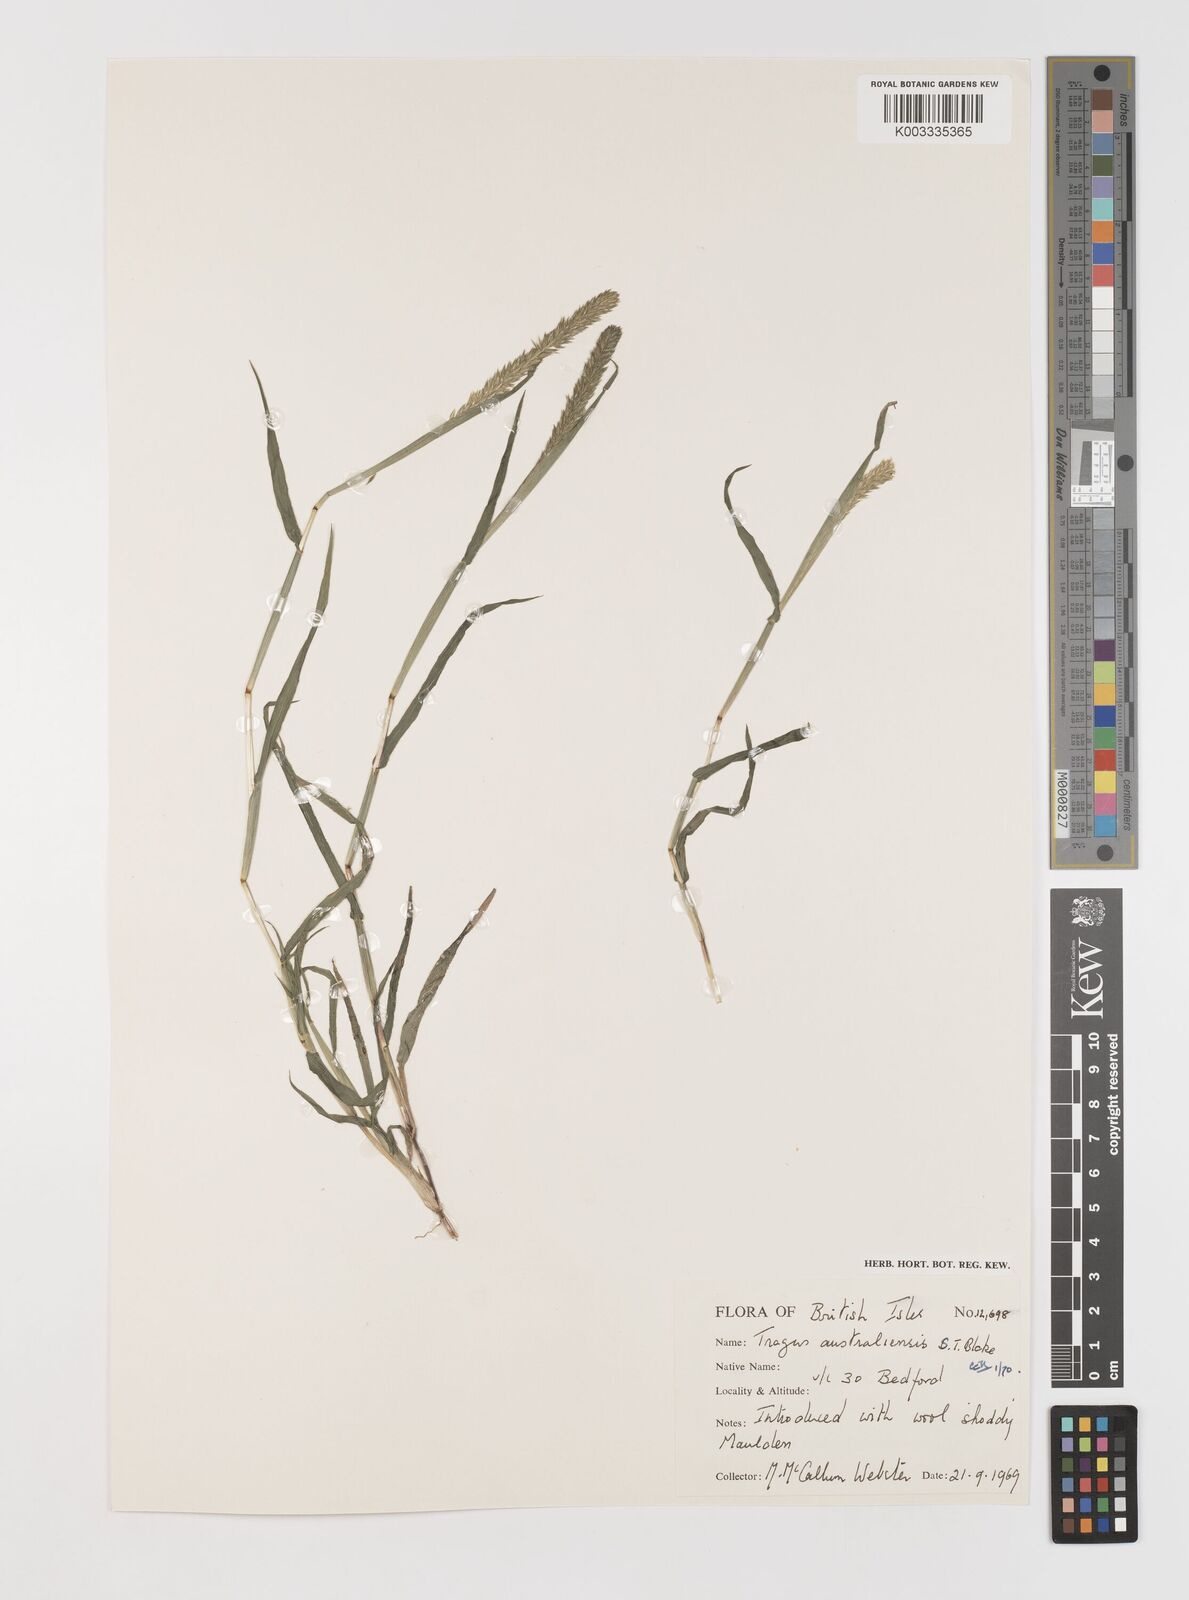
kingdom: Plantae
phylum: Tracheophyta
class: Liliopsida
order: Poales
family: Poaceae
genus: Tragus
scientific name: Tragus australianus
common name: Australian bur-grass
